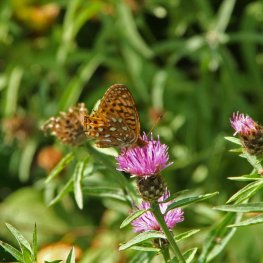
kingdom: Animalia
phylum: Arthropoda
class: Insecta
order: Lepidoptera
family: Nymphalidae
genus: Speyeria
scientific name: Speyeria atlantis
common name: Atlantis Fritillary
